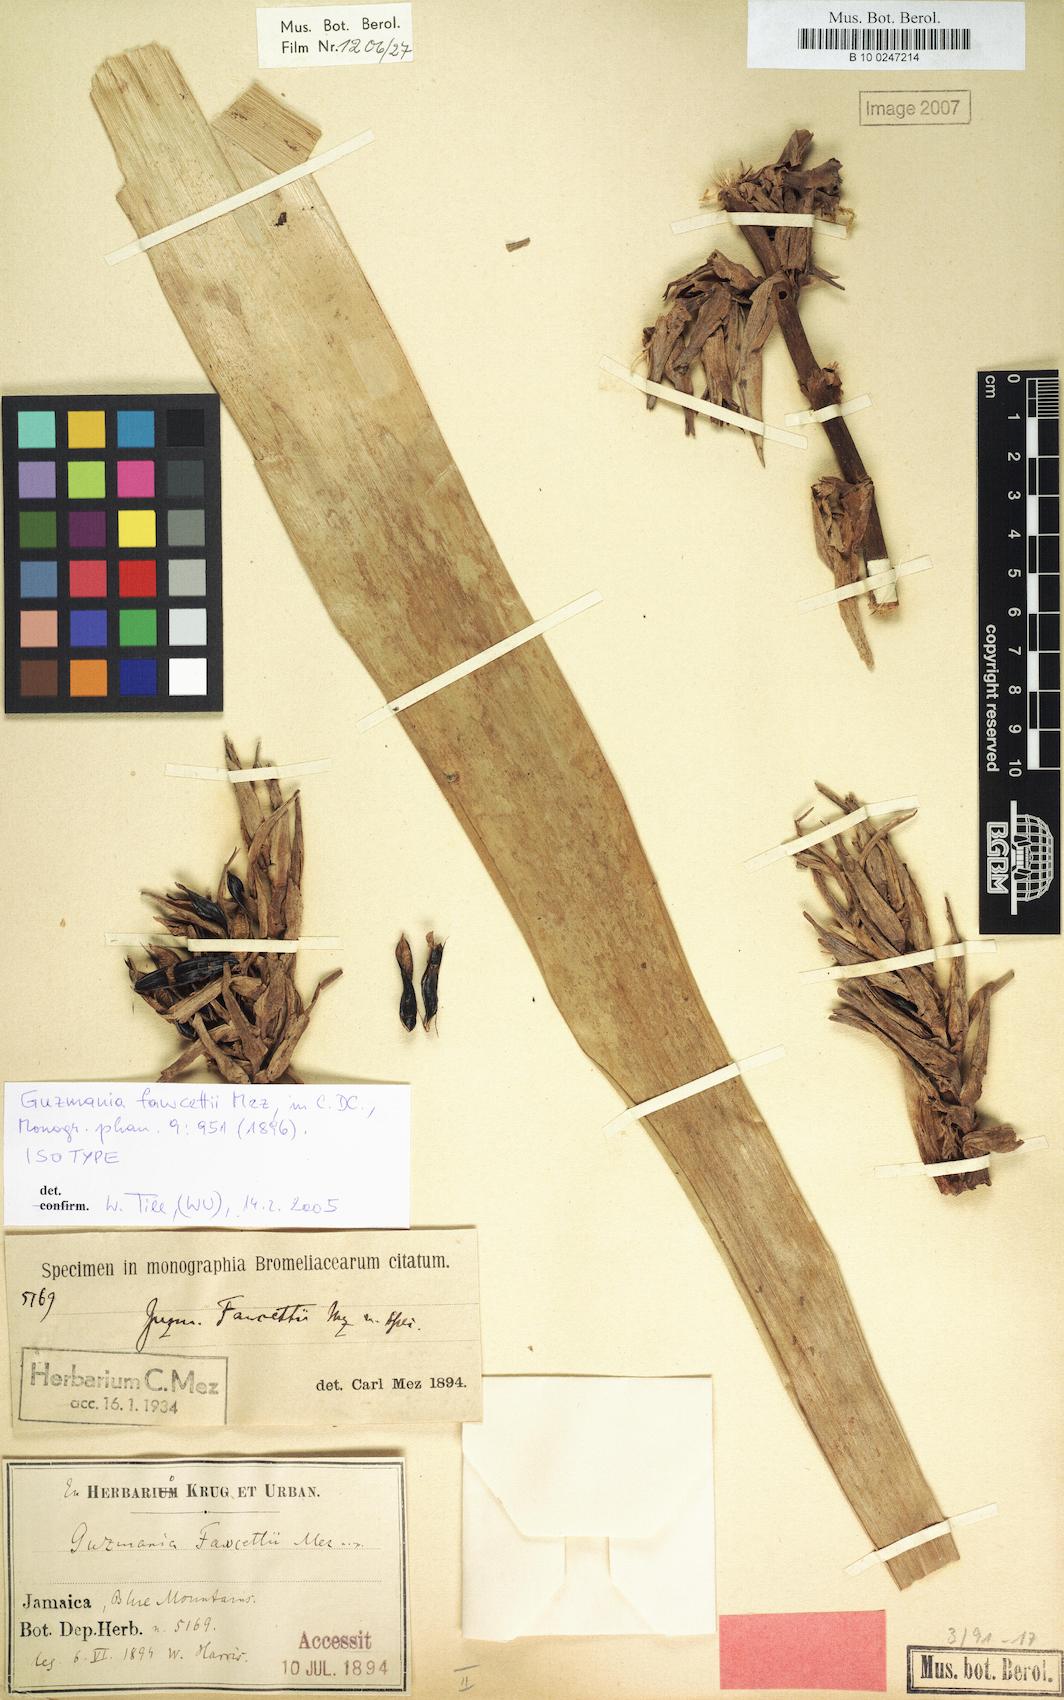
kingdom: Plantae
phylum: Tracheophyta
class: Liliopsida
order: Poales
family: Bromeliaceae
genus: Guzmania
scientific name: Guzmania fawcettii
